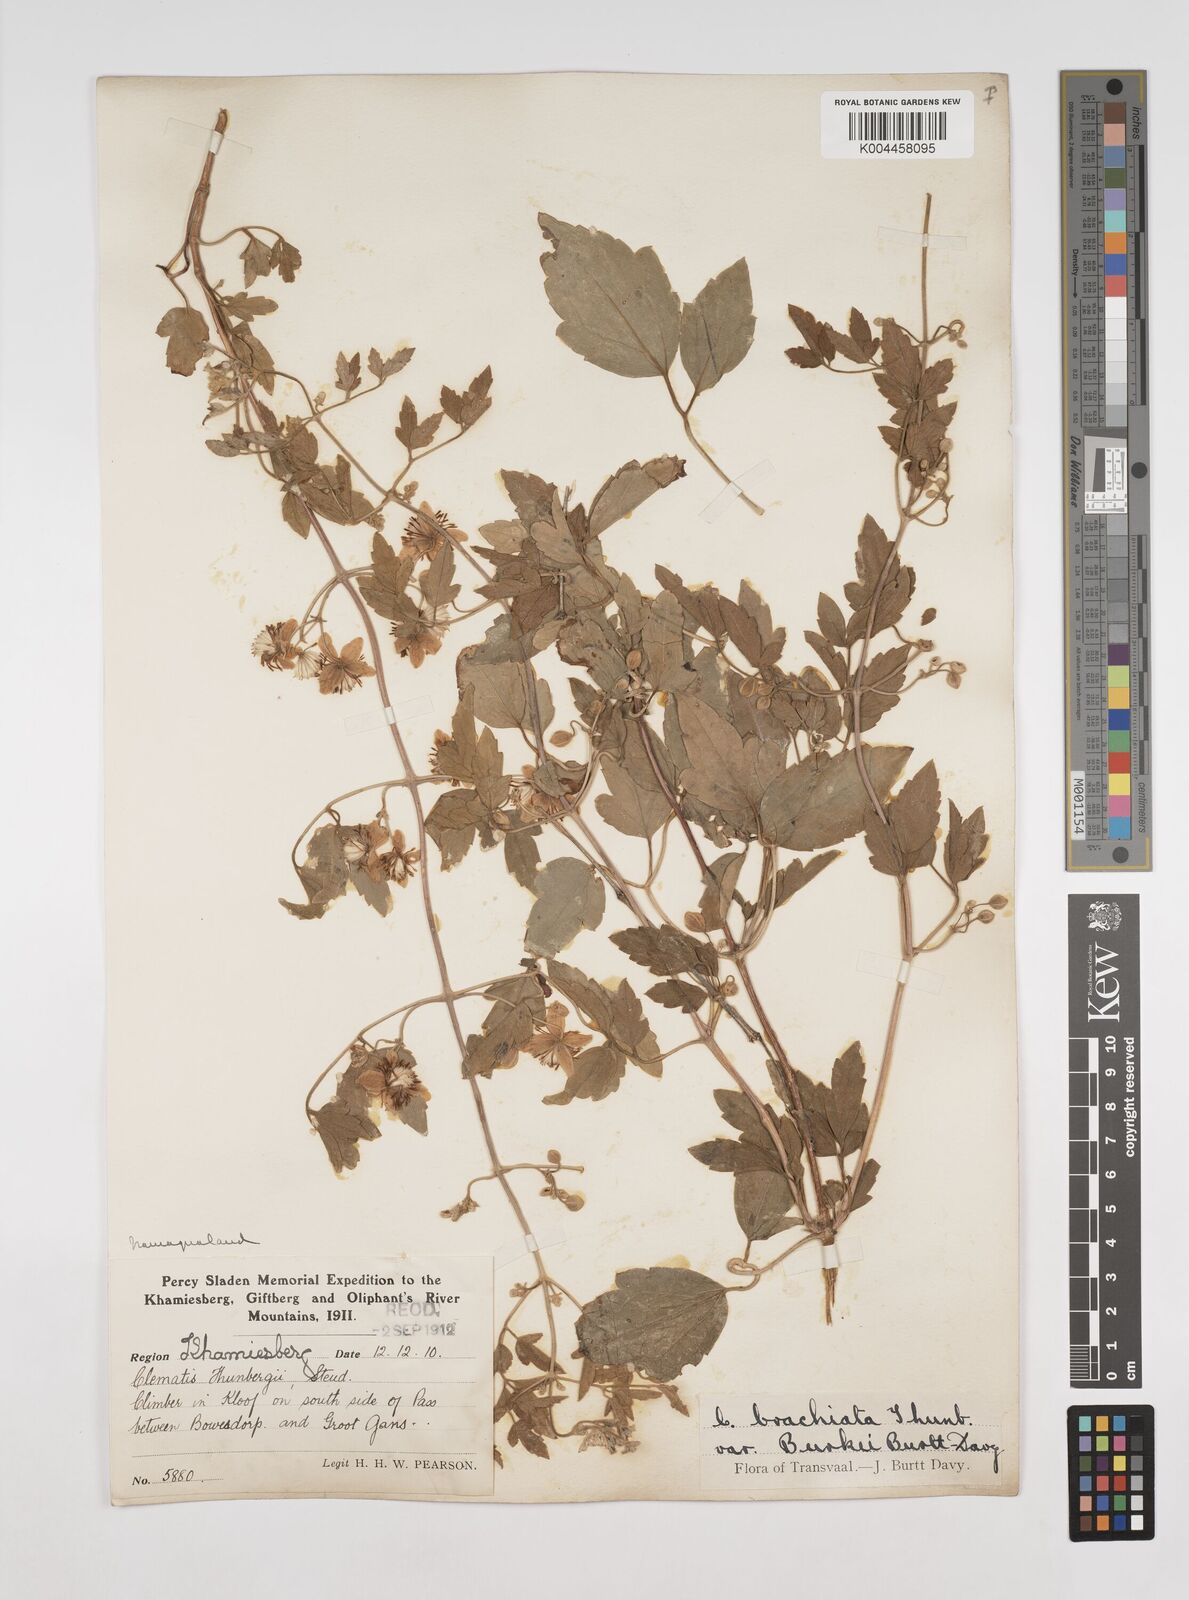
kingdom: Plantae
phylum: Tracheophyta
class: Magnoliopsida
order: Ranunculales
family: Ranunculaceae
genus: Clematis
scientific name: Clematis brachiata
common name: Traveler's-joy
